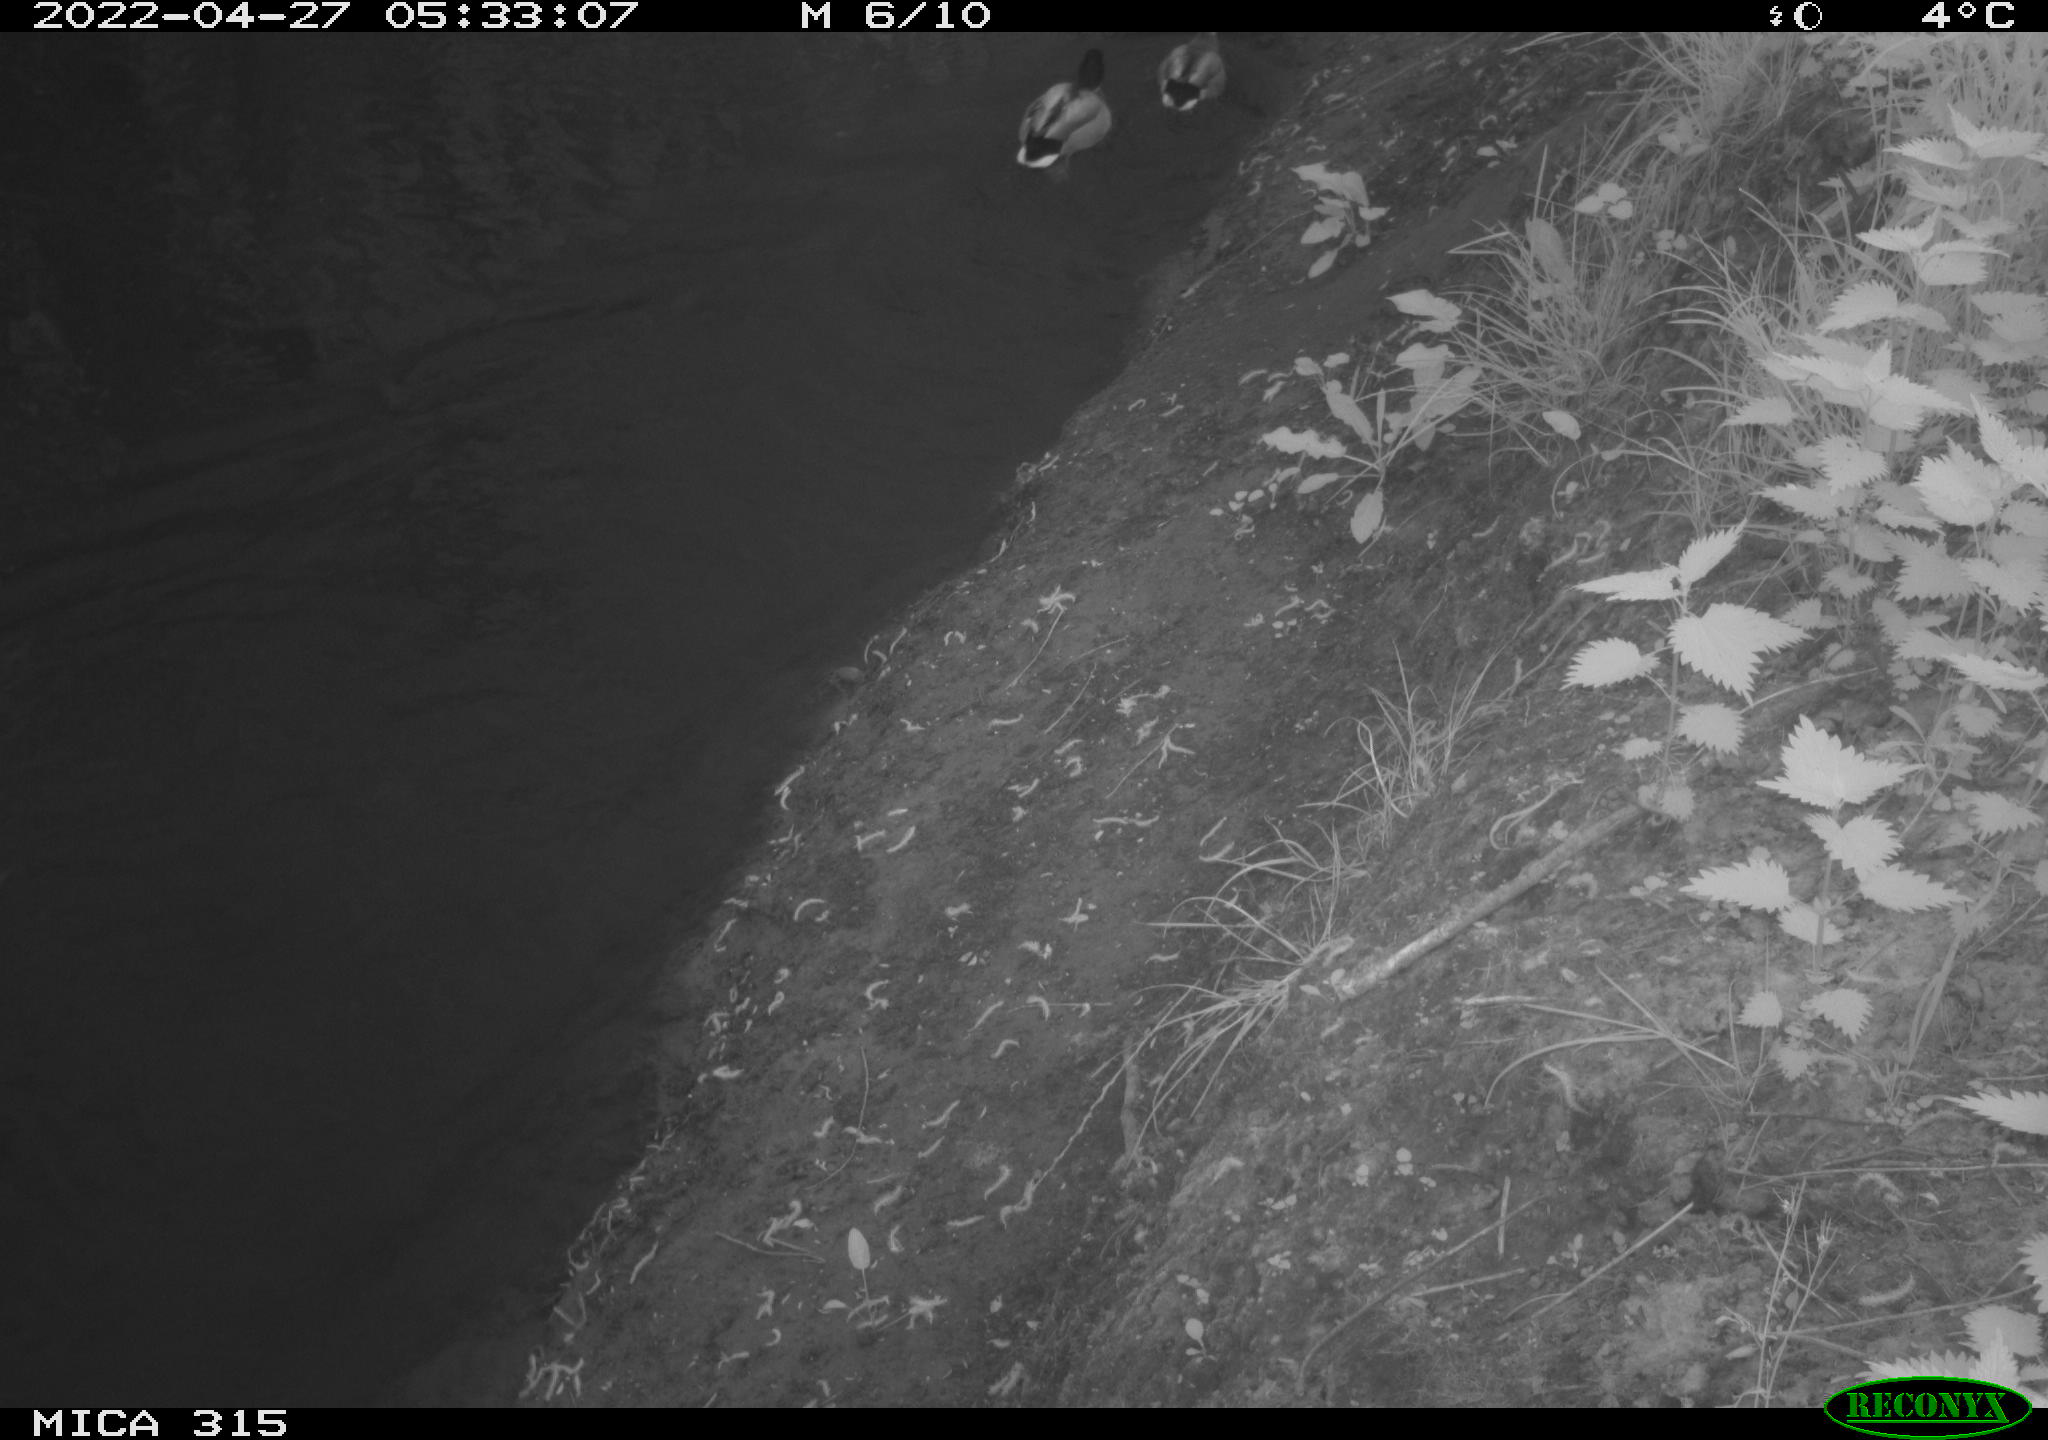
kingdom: Animalia
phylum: Chordata
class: Aves
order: Anseriformes
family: Anatidae
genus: Anas
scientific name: Anas platyrhynchos
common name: Mallard
